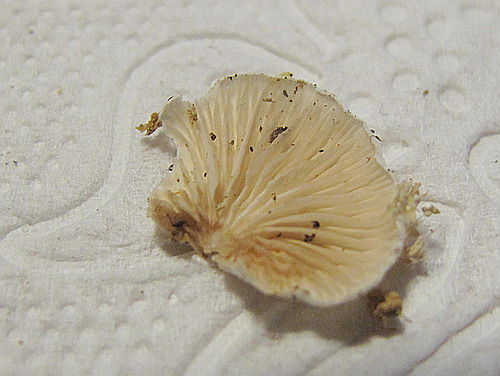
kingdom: Fungi
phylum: Basidiomycota
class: Agaricomycetes
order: Agaricales
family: Crepidotaceae
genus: Crepidotus
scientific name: Crepidotus cesatii
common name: almindelig muslingesvamp
